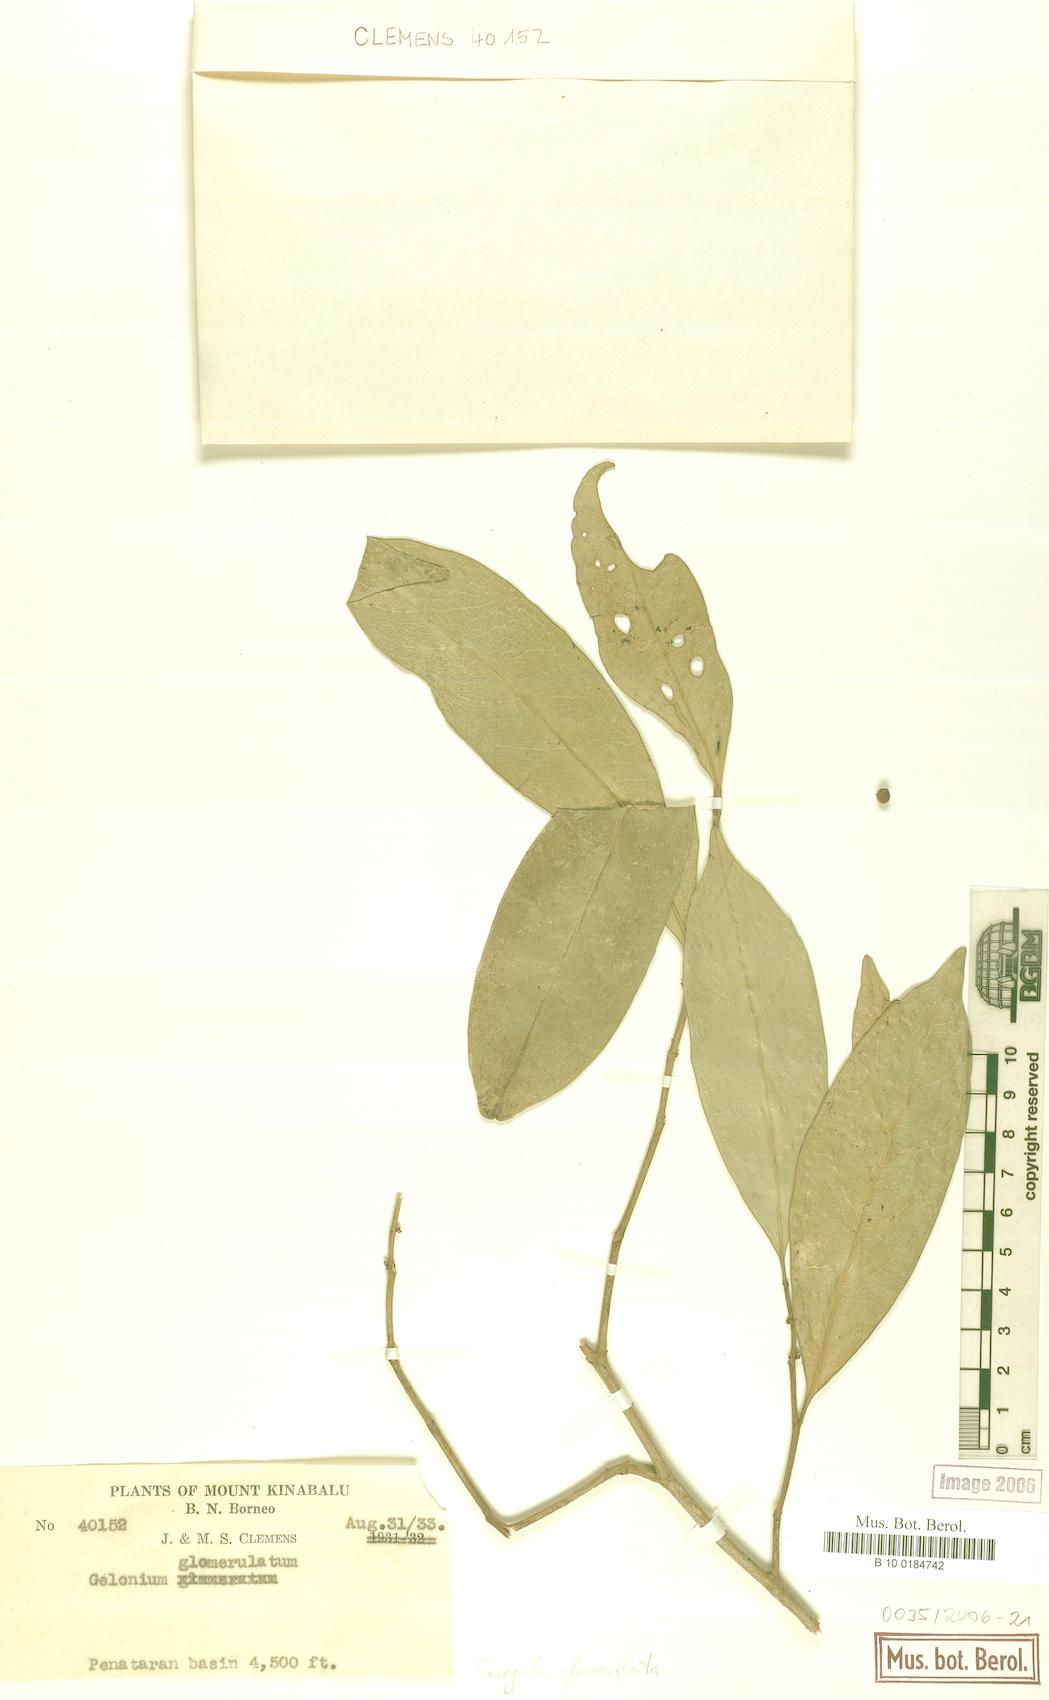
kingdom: Plantae
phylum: Tracheophyta
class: Magnoliopsida
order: Malpighiales
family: Euphorbiaceae
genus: Suregada
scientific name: Suregada glomerulata
